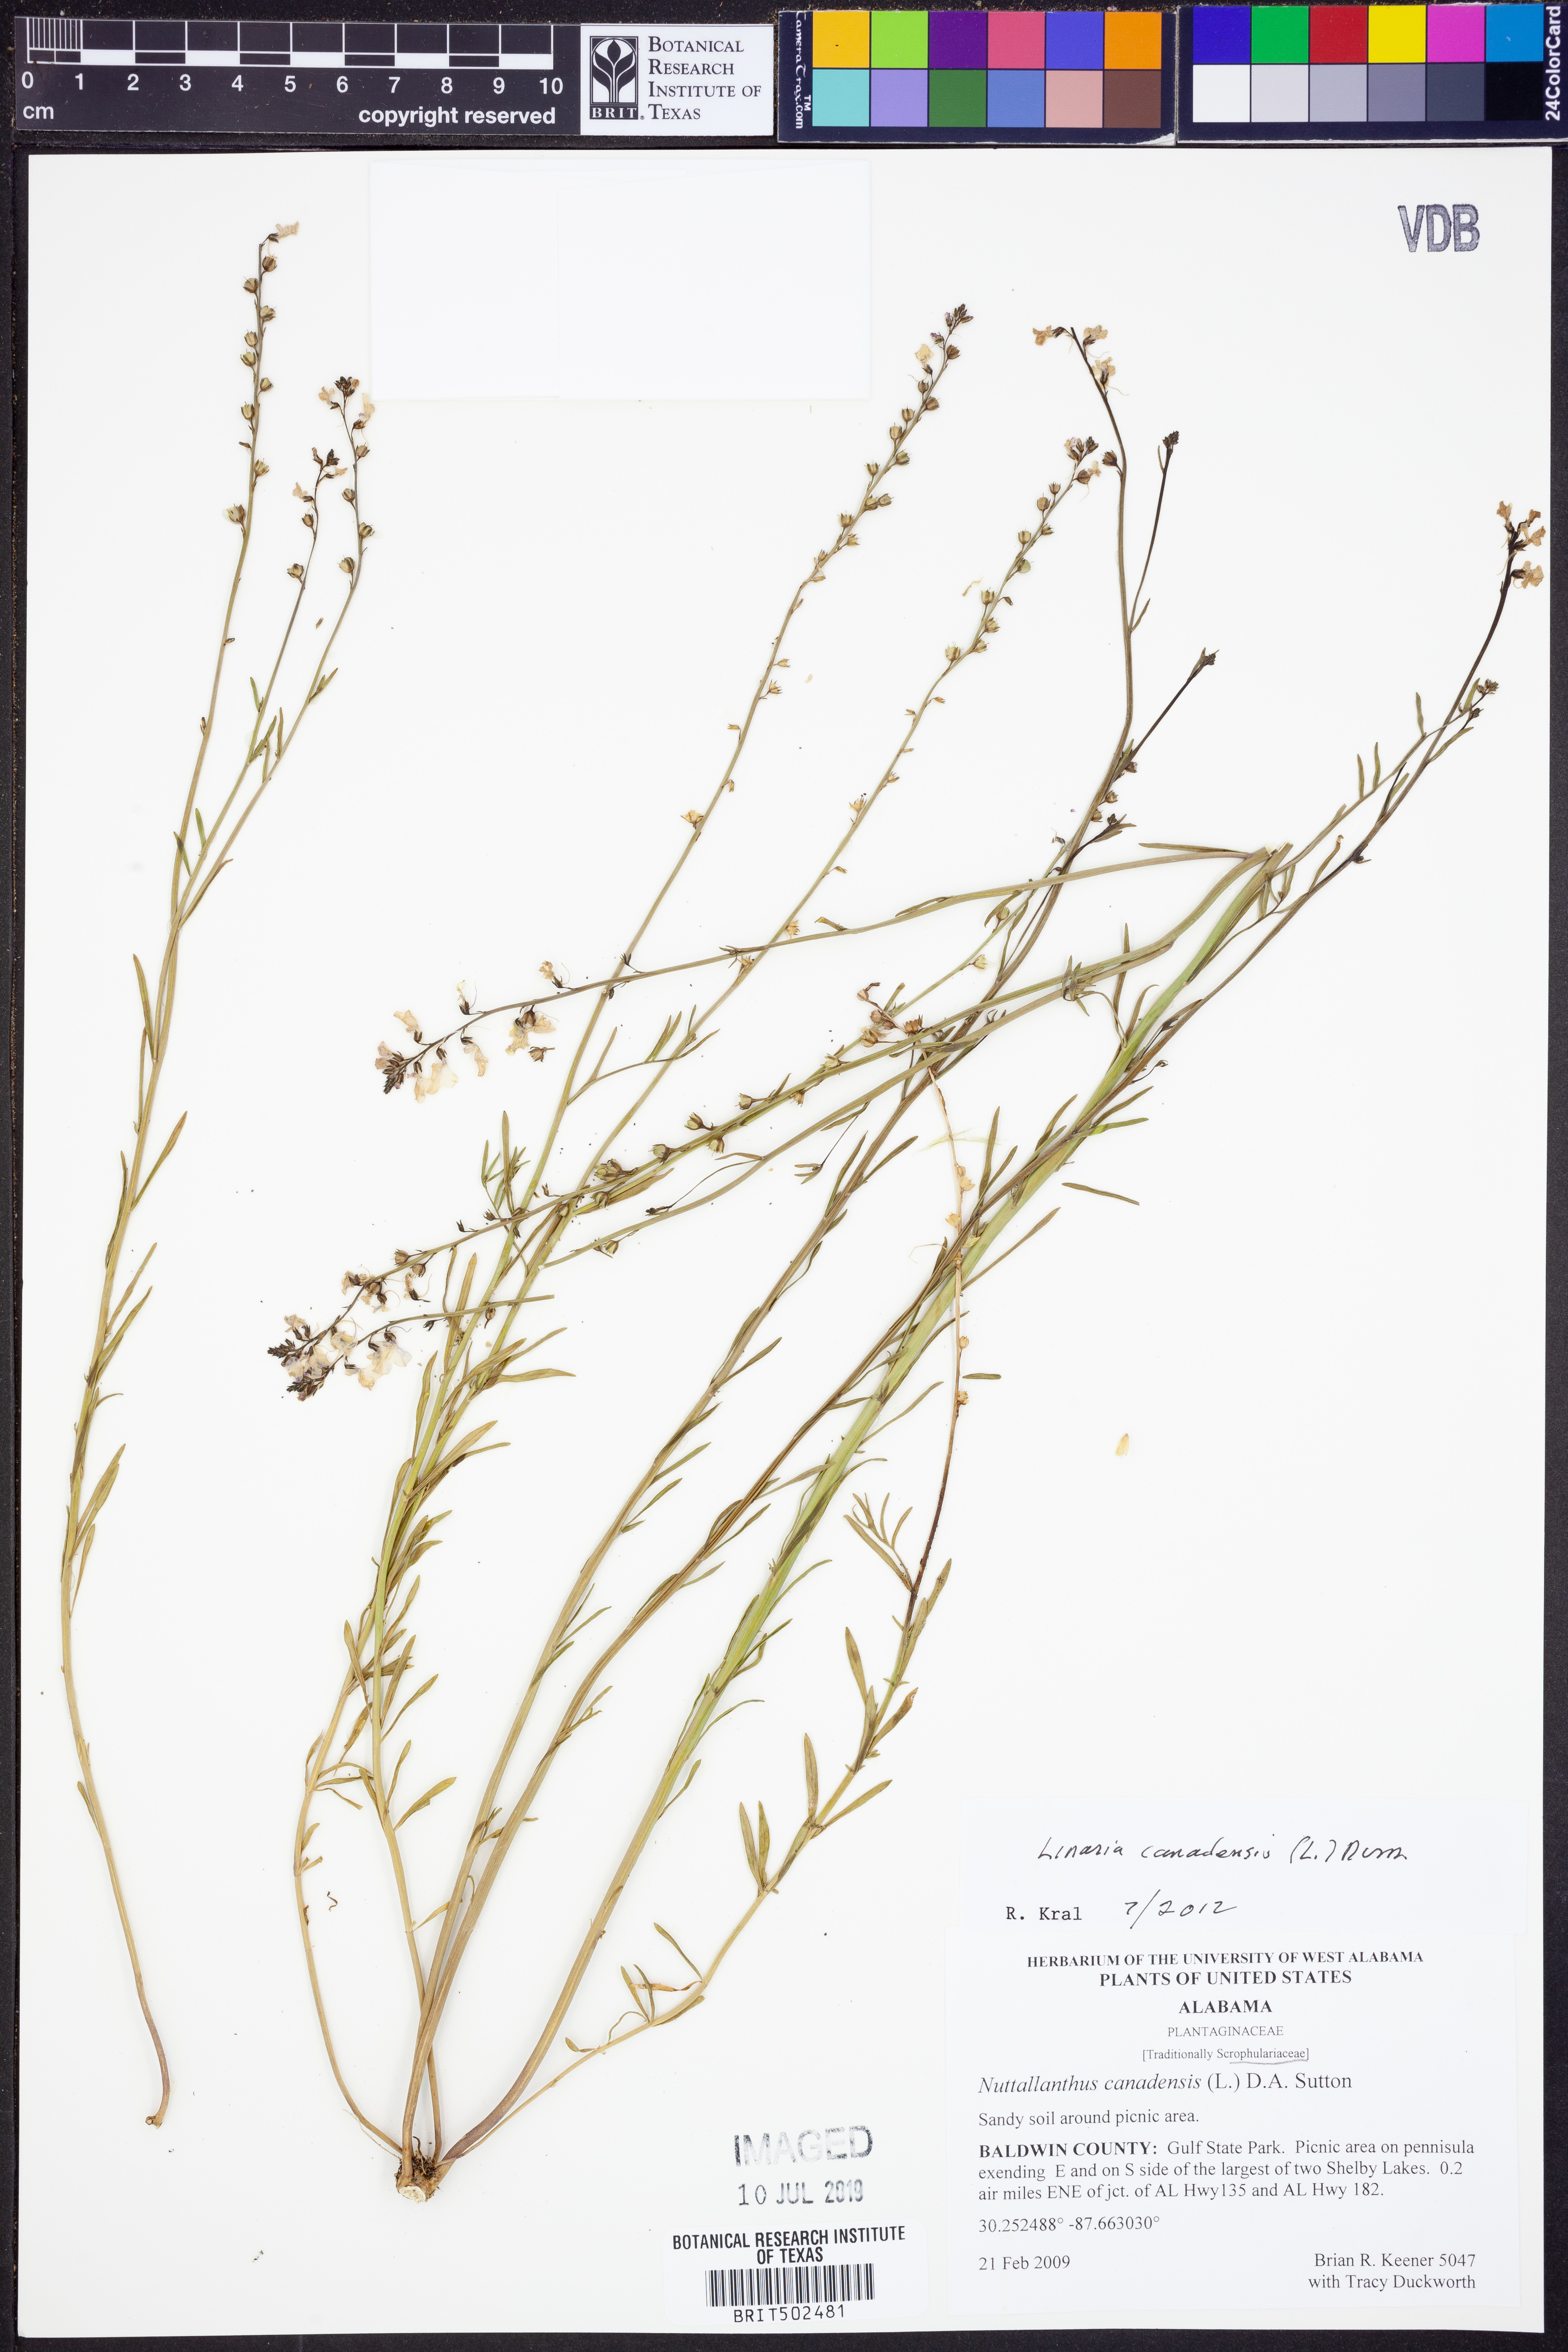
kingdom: Plantae
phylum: Tracheophyta
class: Magnoliopsida
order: Lamiales
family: Plantaginaceae
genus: Nuttallanthus
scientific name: Nuttallanthus canadensis
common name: Blue toadflax
